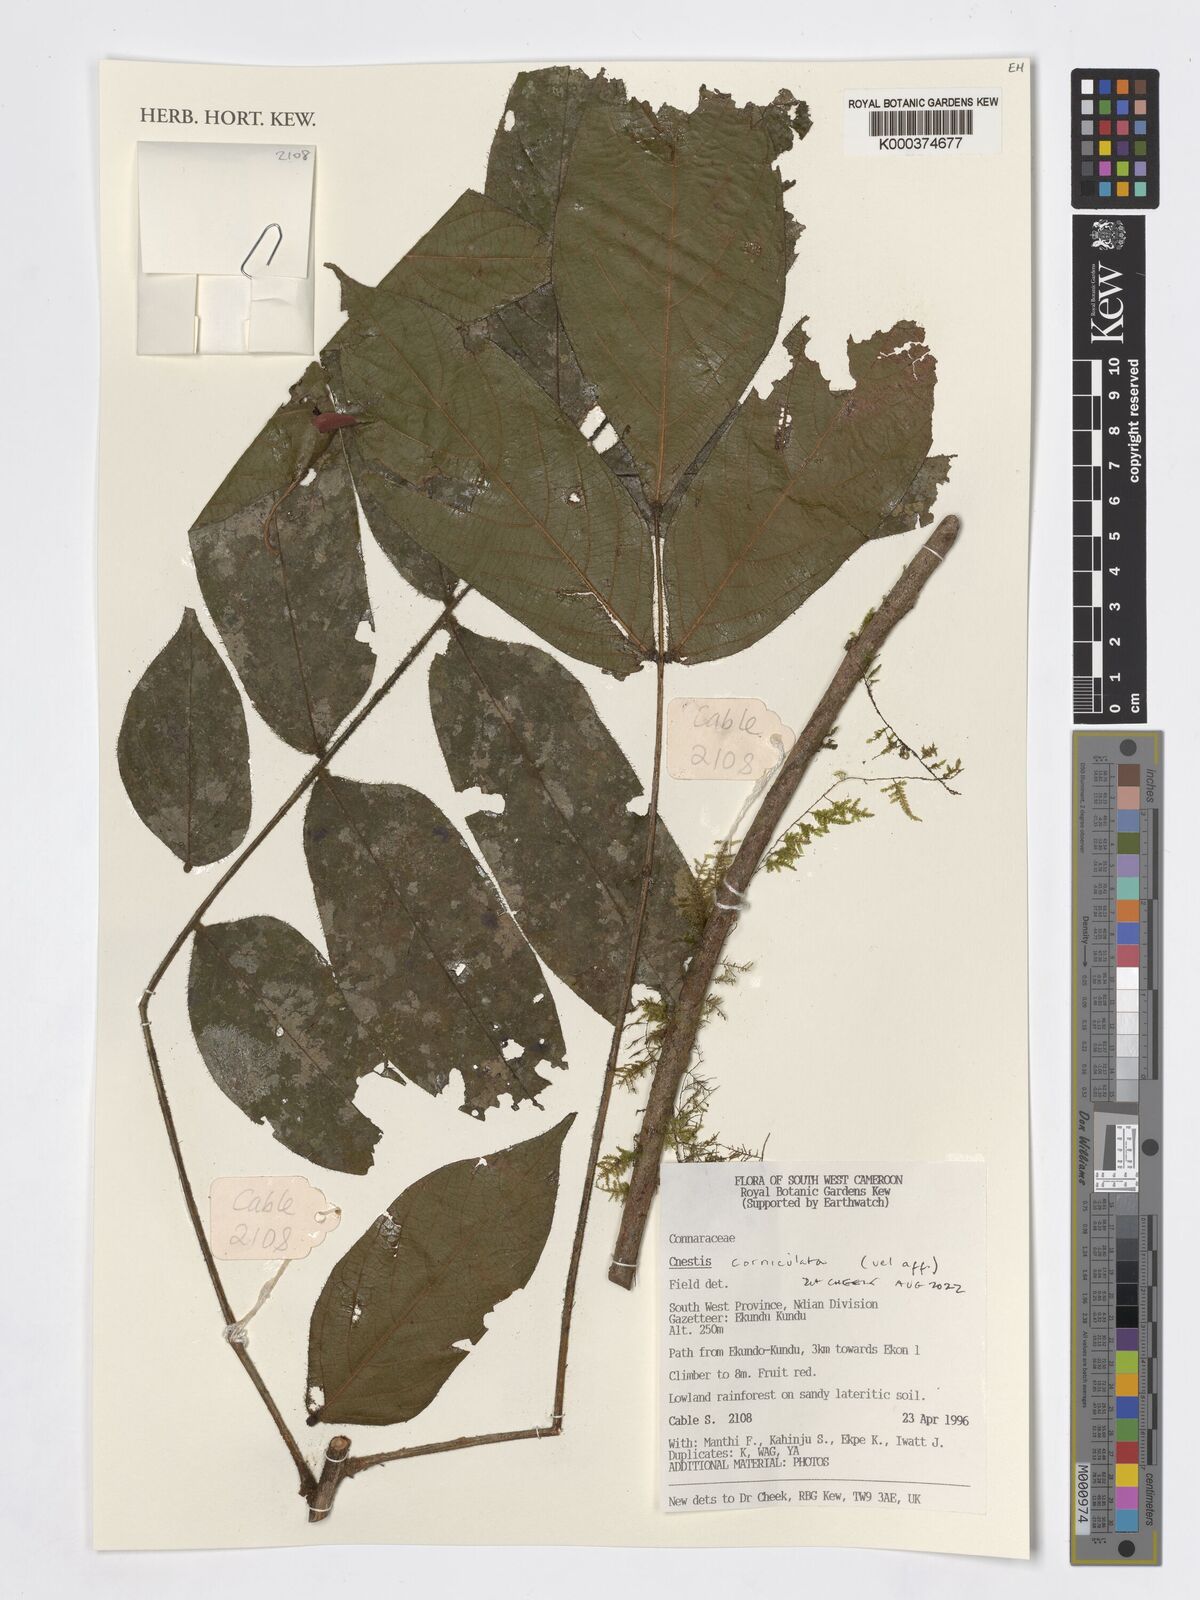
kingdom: Plantae
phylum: Tracheophyta
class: Magnoliopsida
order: Oxalidales
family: Connaraceae
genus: Cnestis
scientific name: Cnestis corniculata
